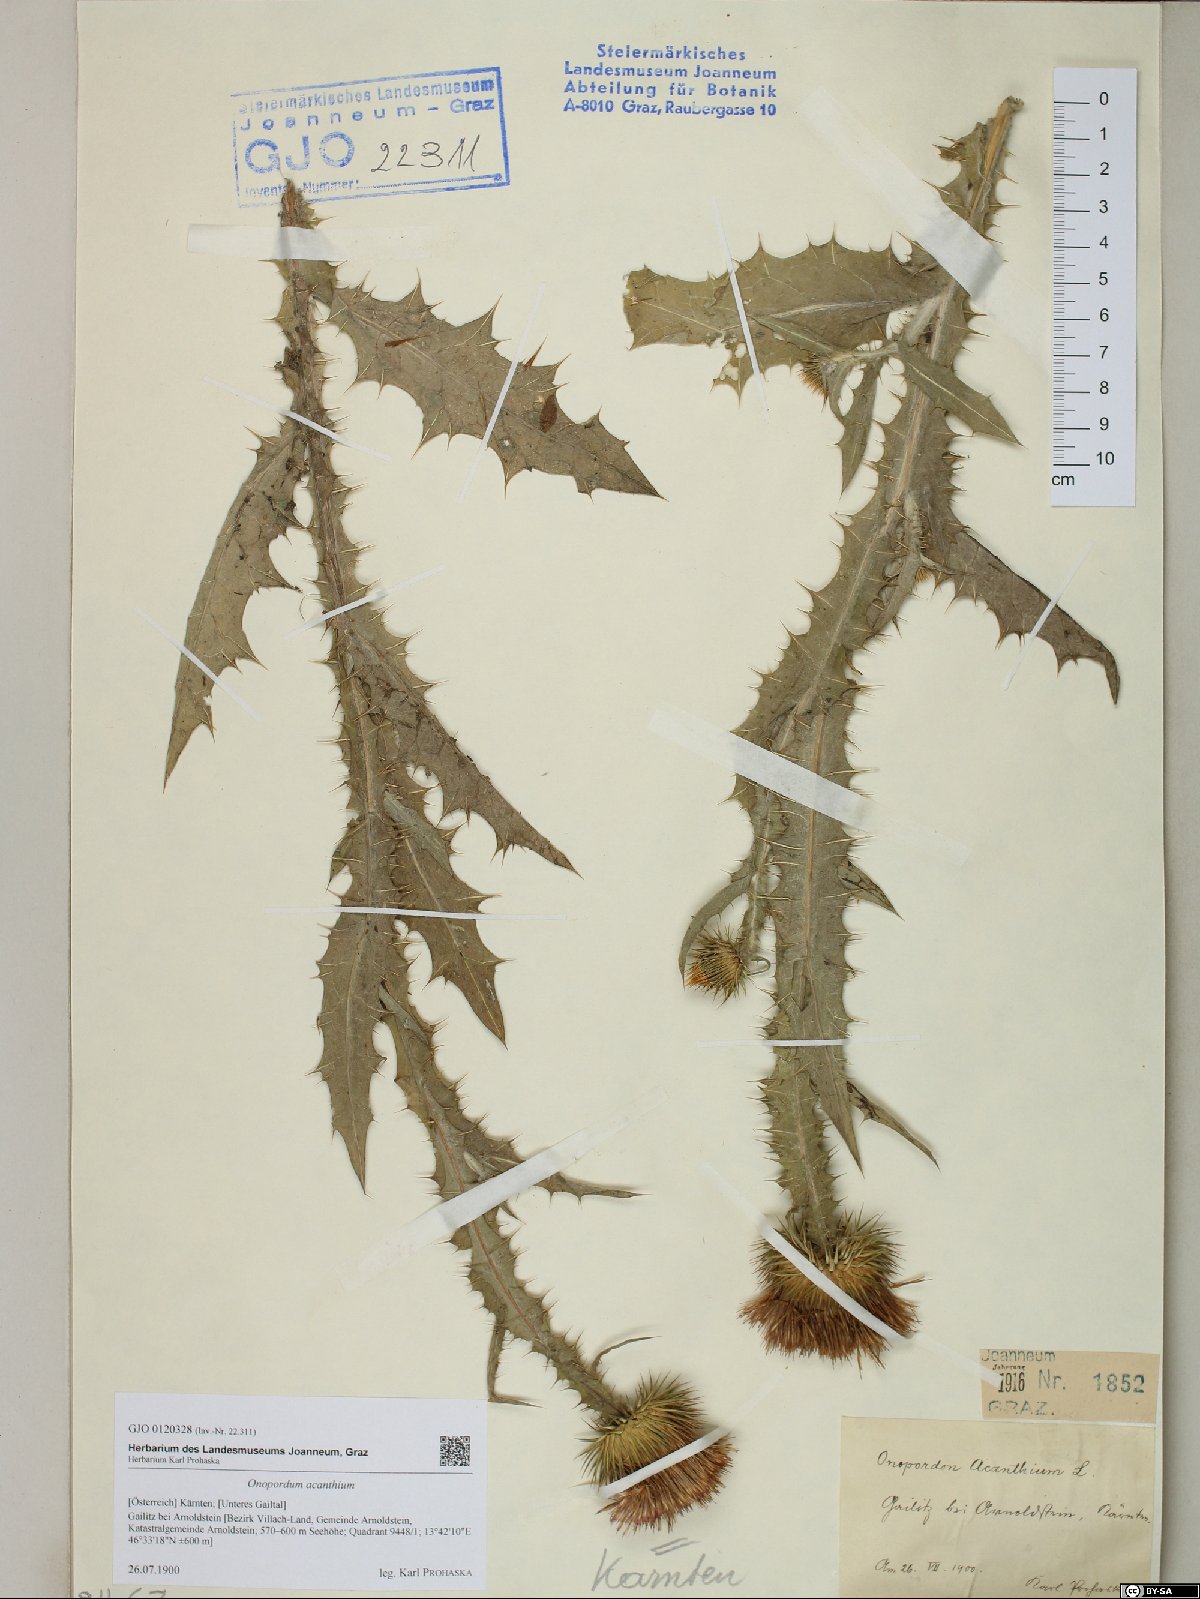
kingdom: Plantae
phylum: Tracheophyta
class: Magnoliopsida
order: Asterales
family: Asteraceae
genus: Onopordum
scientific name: Onopordum acanthium
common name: Scotch thistle
